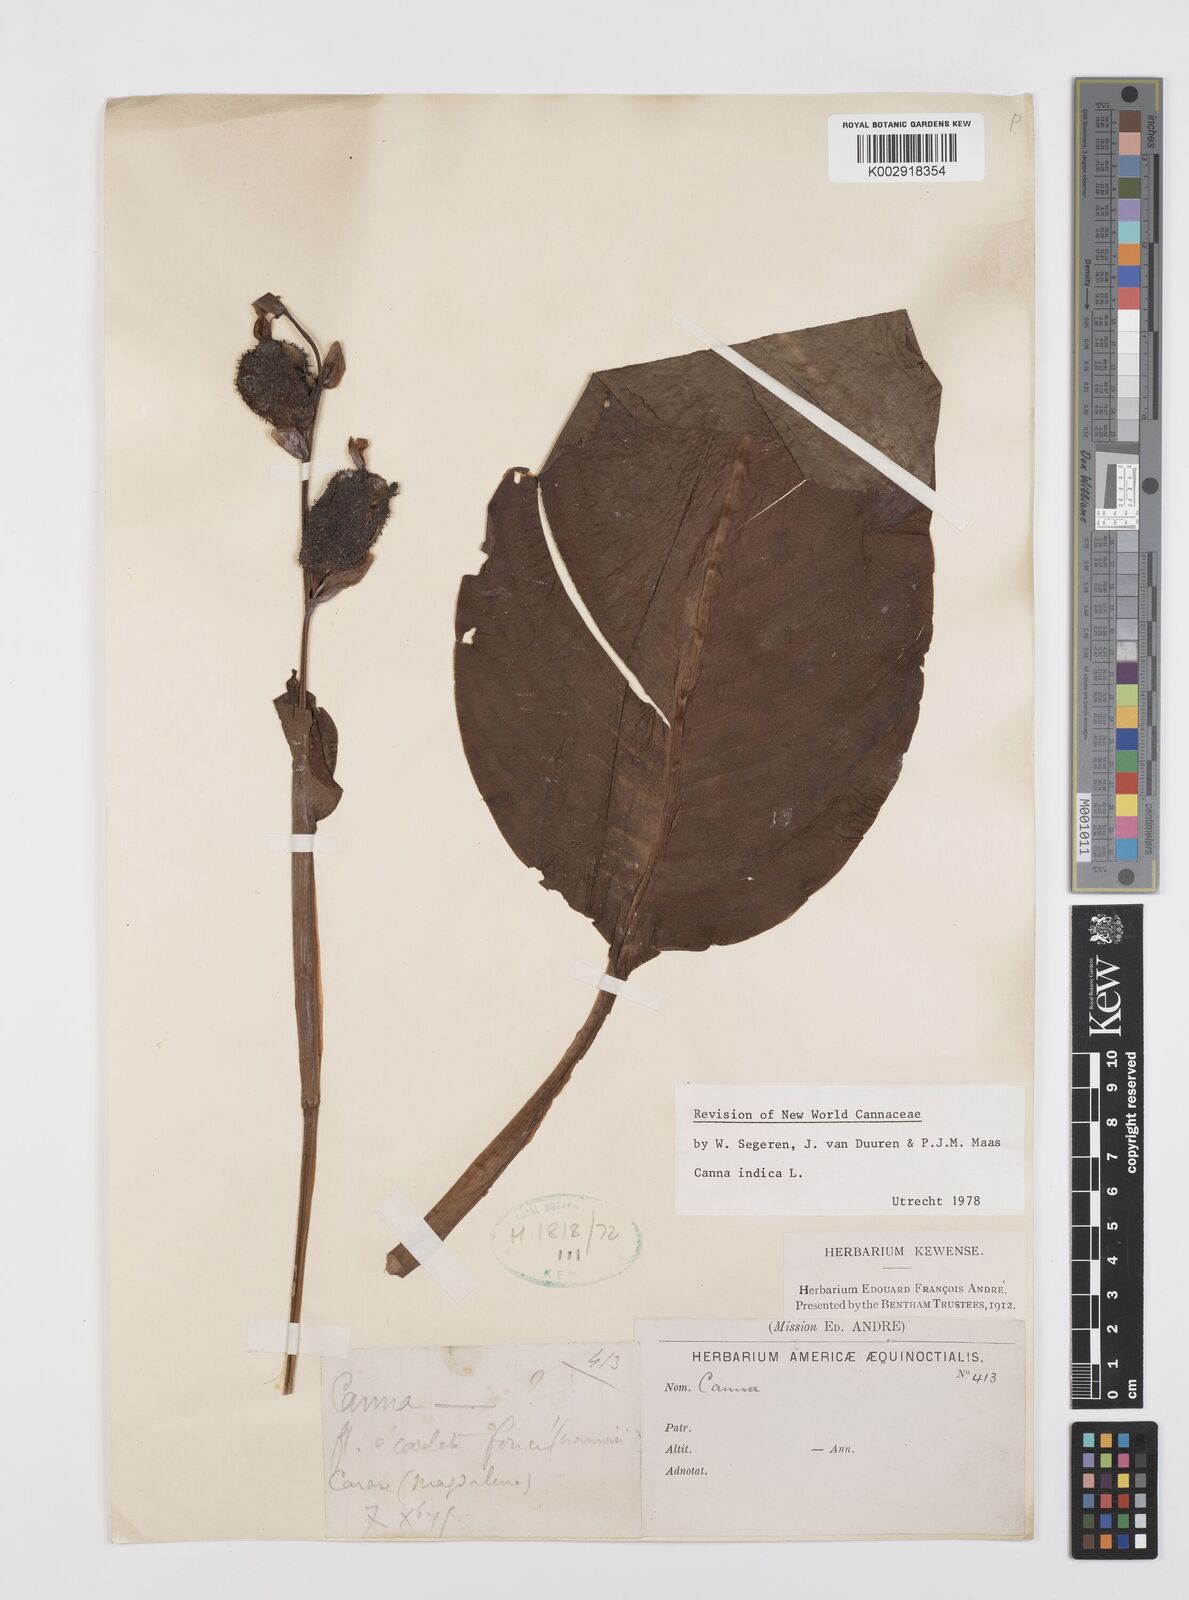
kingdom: Plantae
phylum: Tracheophyta
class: Liliopsida
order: Zingiberales
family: Cannaceae
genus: Canna
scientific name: Canna indica
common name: Indian shot
